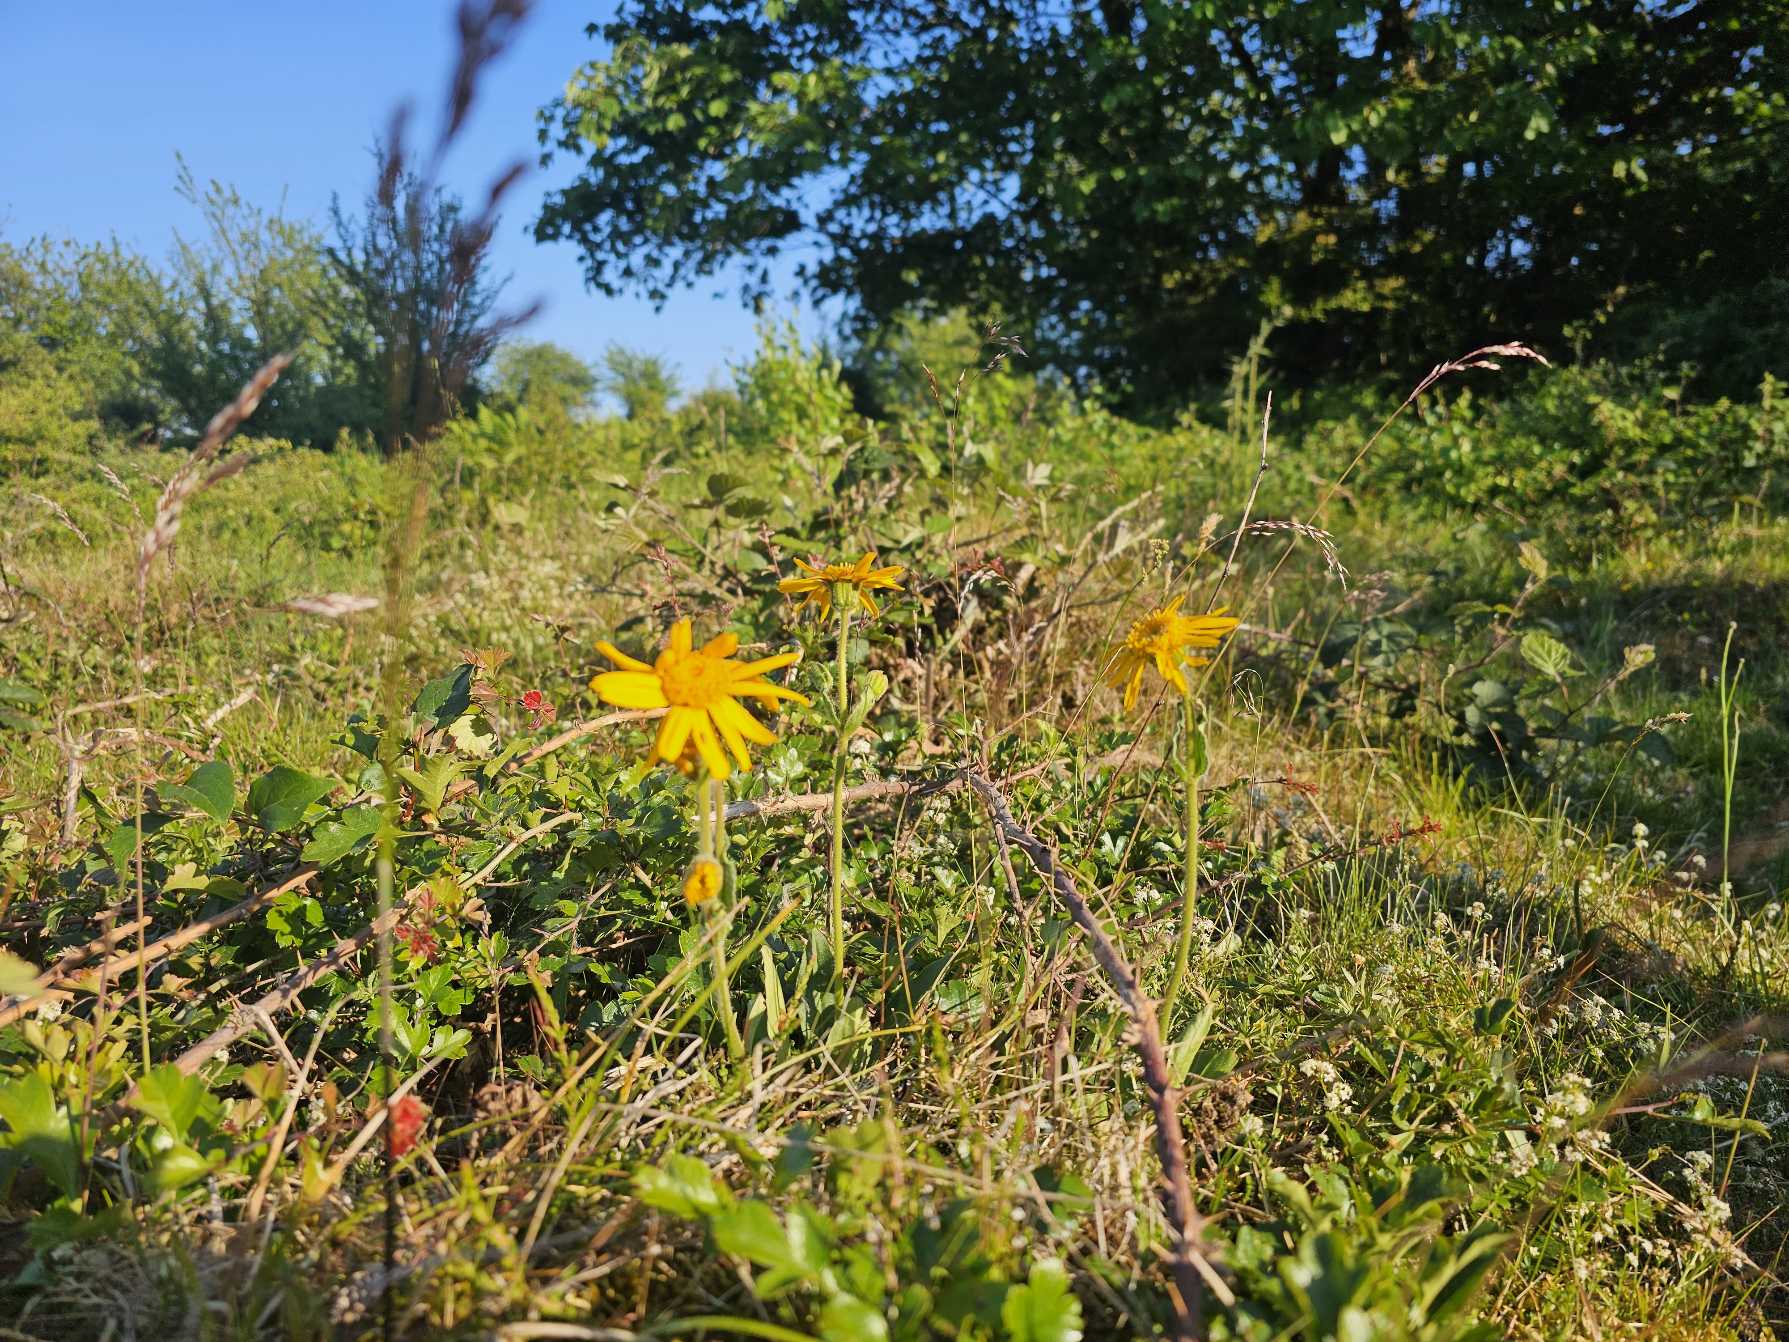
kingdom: Plantae
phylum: Tracheophyta
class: Magnoliopsida
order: Asterales
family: Asteraceae
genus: Arnica
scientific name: Arnica montana
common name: Guldblomme
